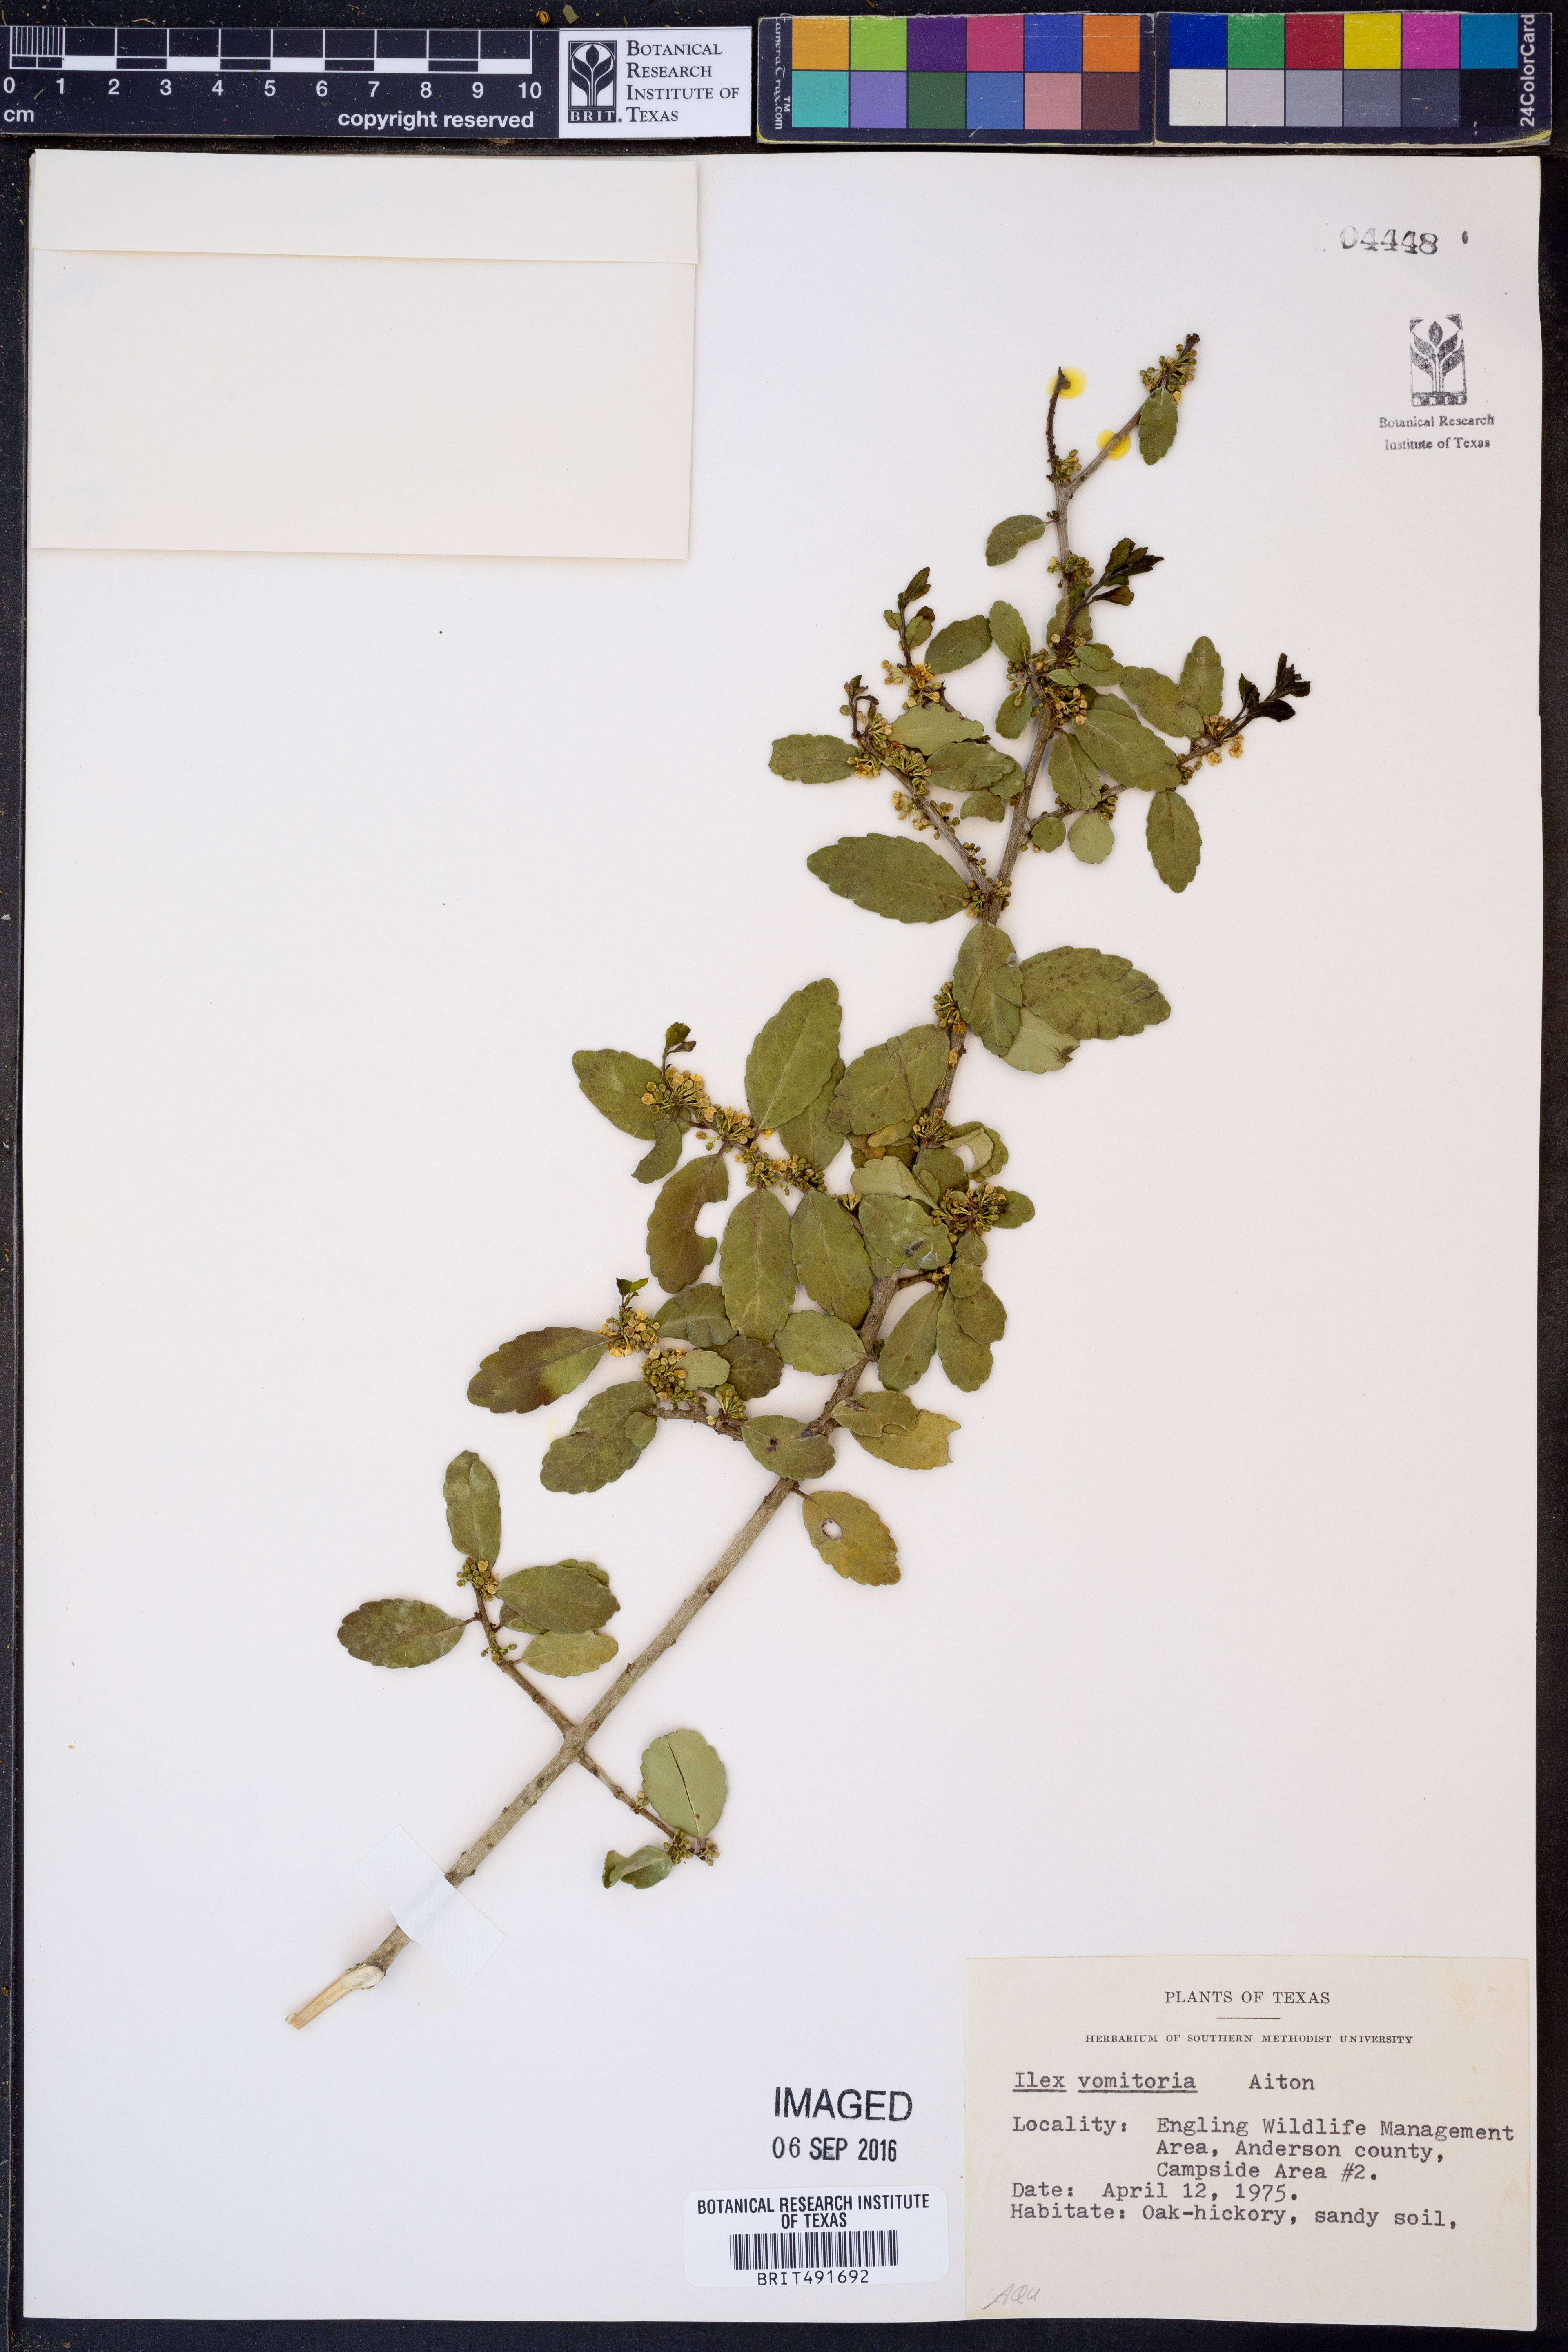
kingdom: Plantae
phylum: Tracheophyta
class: Magnoliopsida
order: Aquifoliales
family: Aquifoliaceae
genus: Ilex
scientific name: Ilex vomitoria
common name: Yaupon holly
